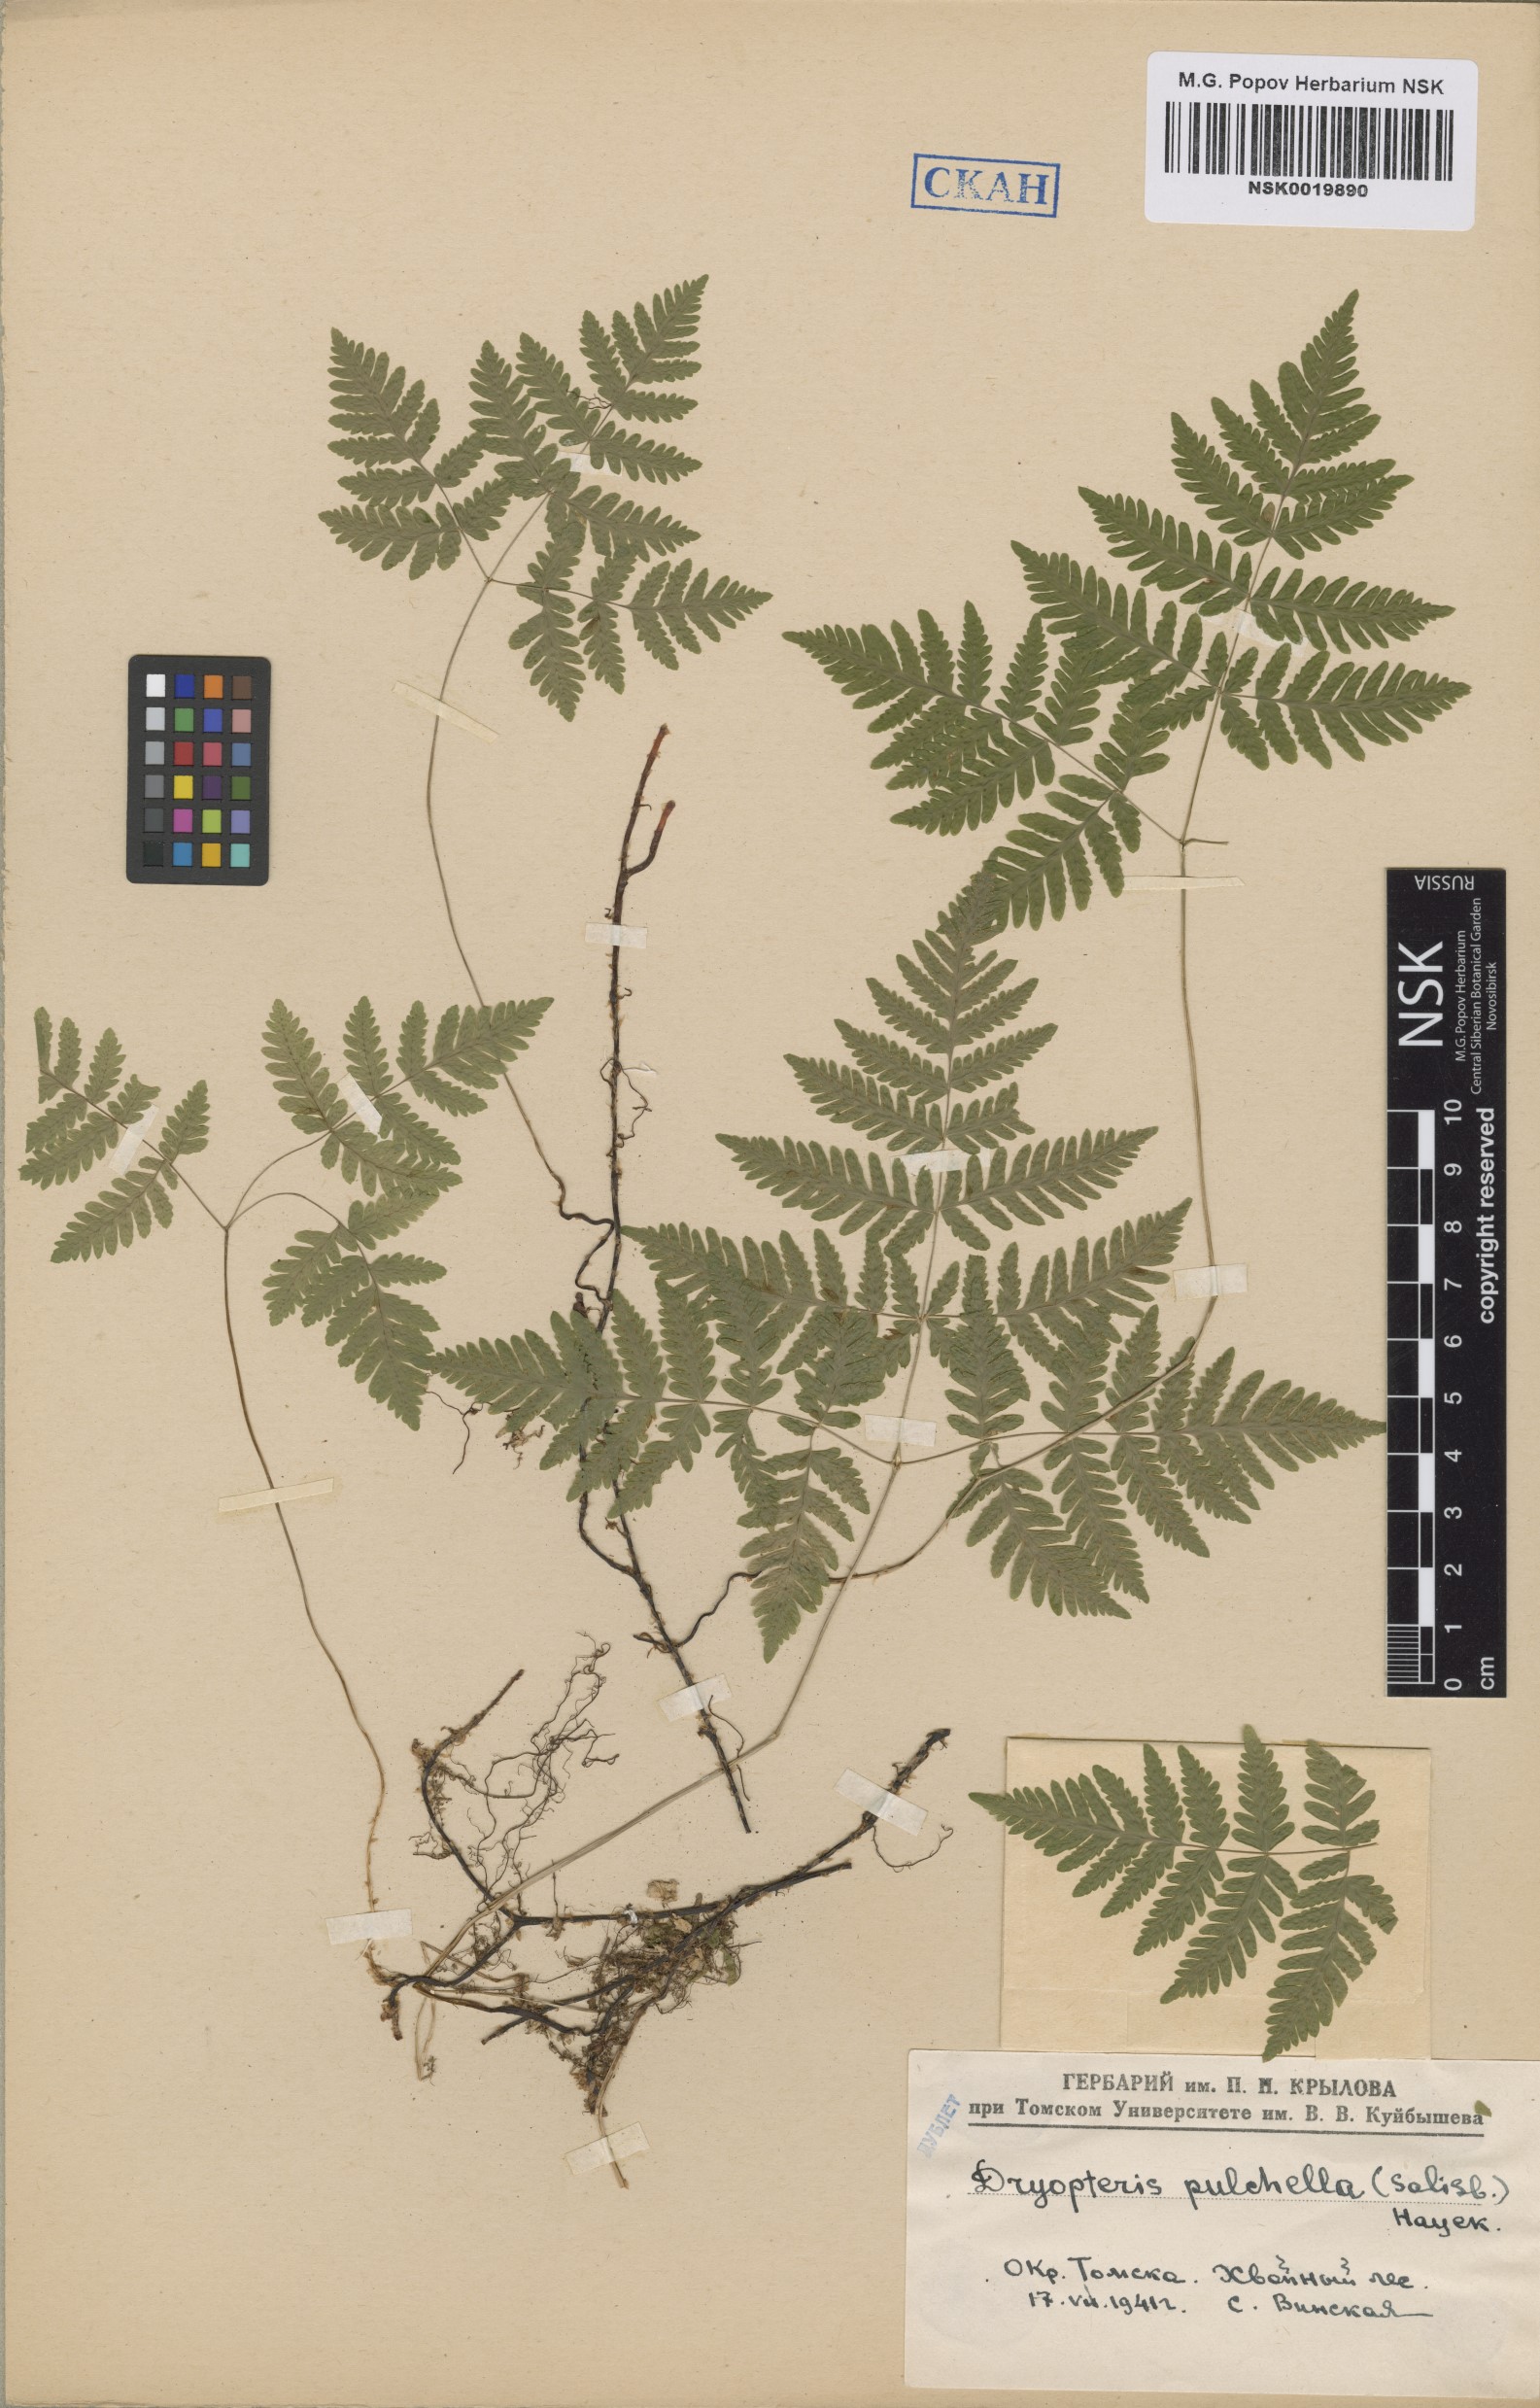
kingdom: Plantae
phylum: Tracheophyta
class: Polypodiopsida
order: Polypodiales
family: Cystopteridaceae
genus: Gymnocarpium
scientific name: Gymnocarpium dryopteris
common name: Oak fern
